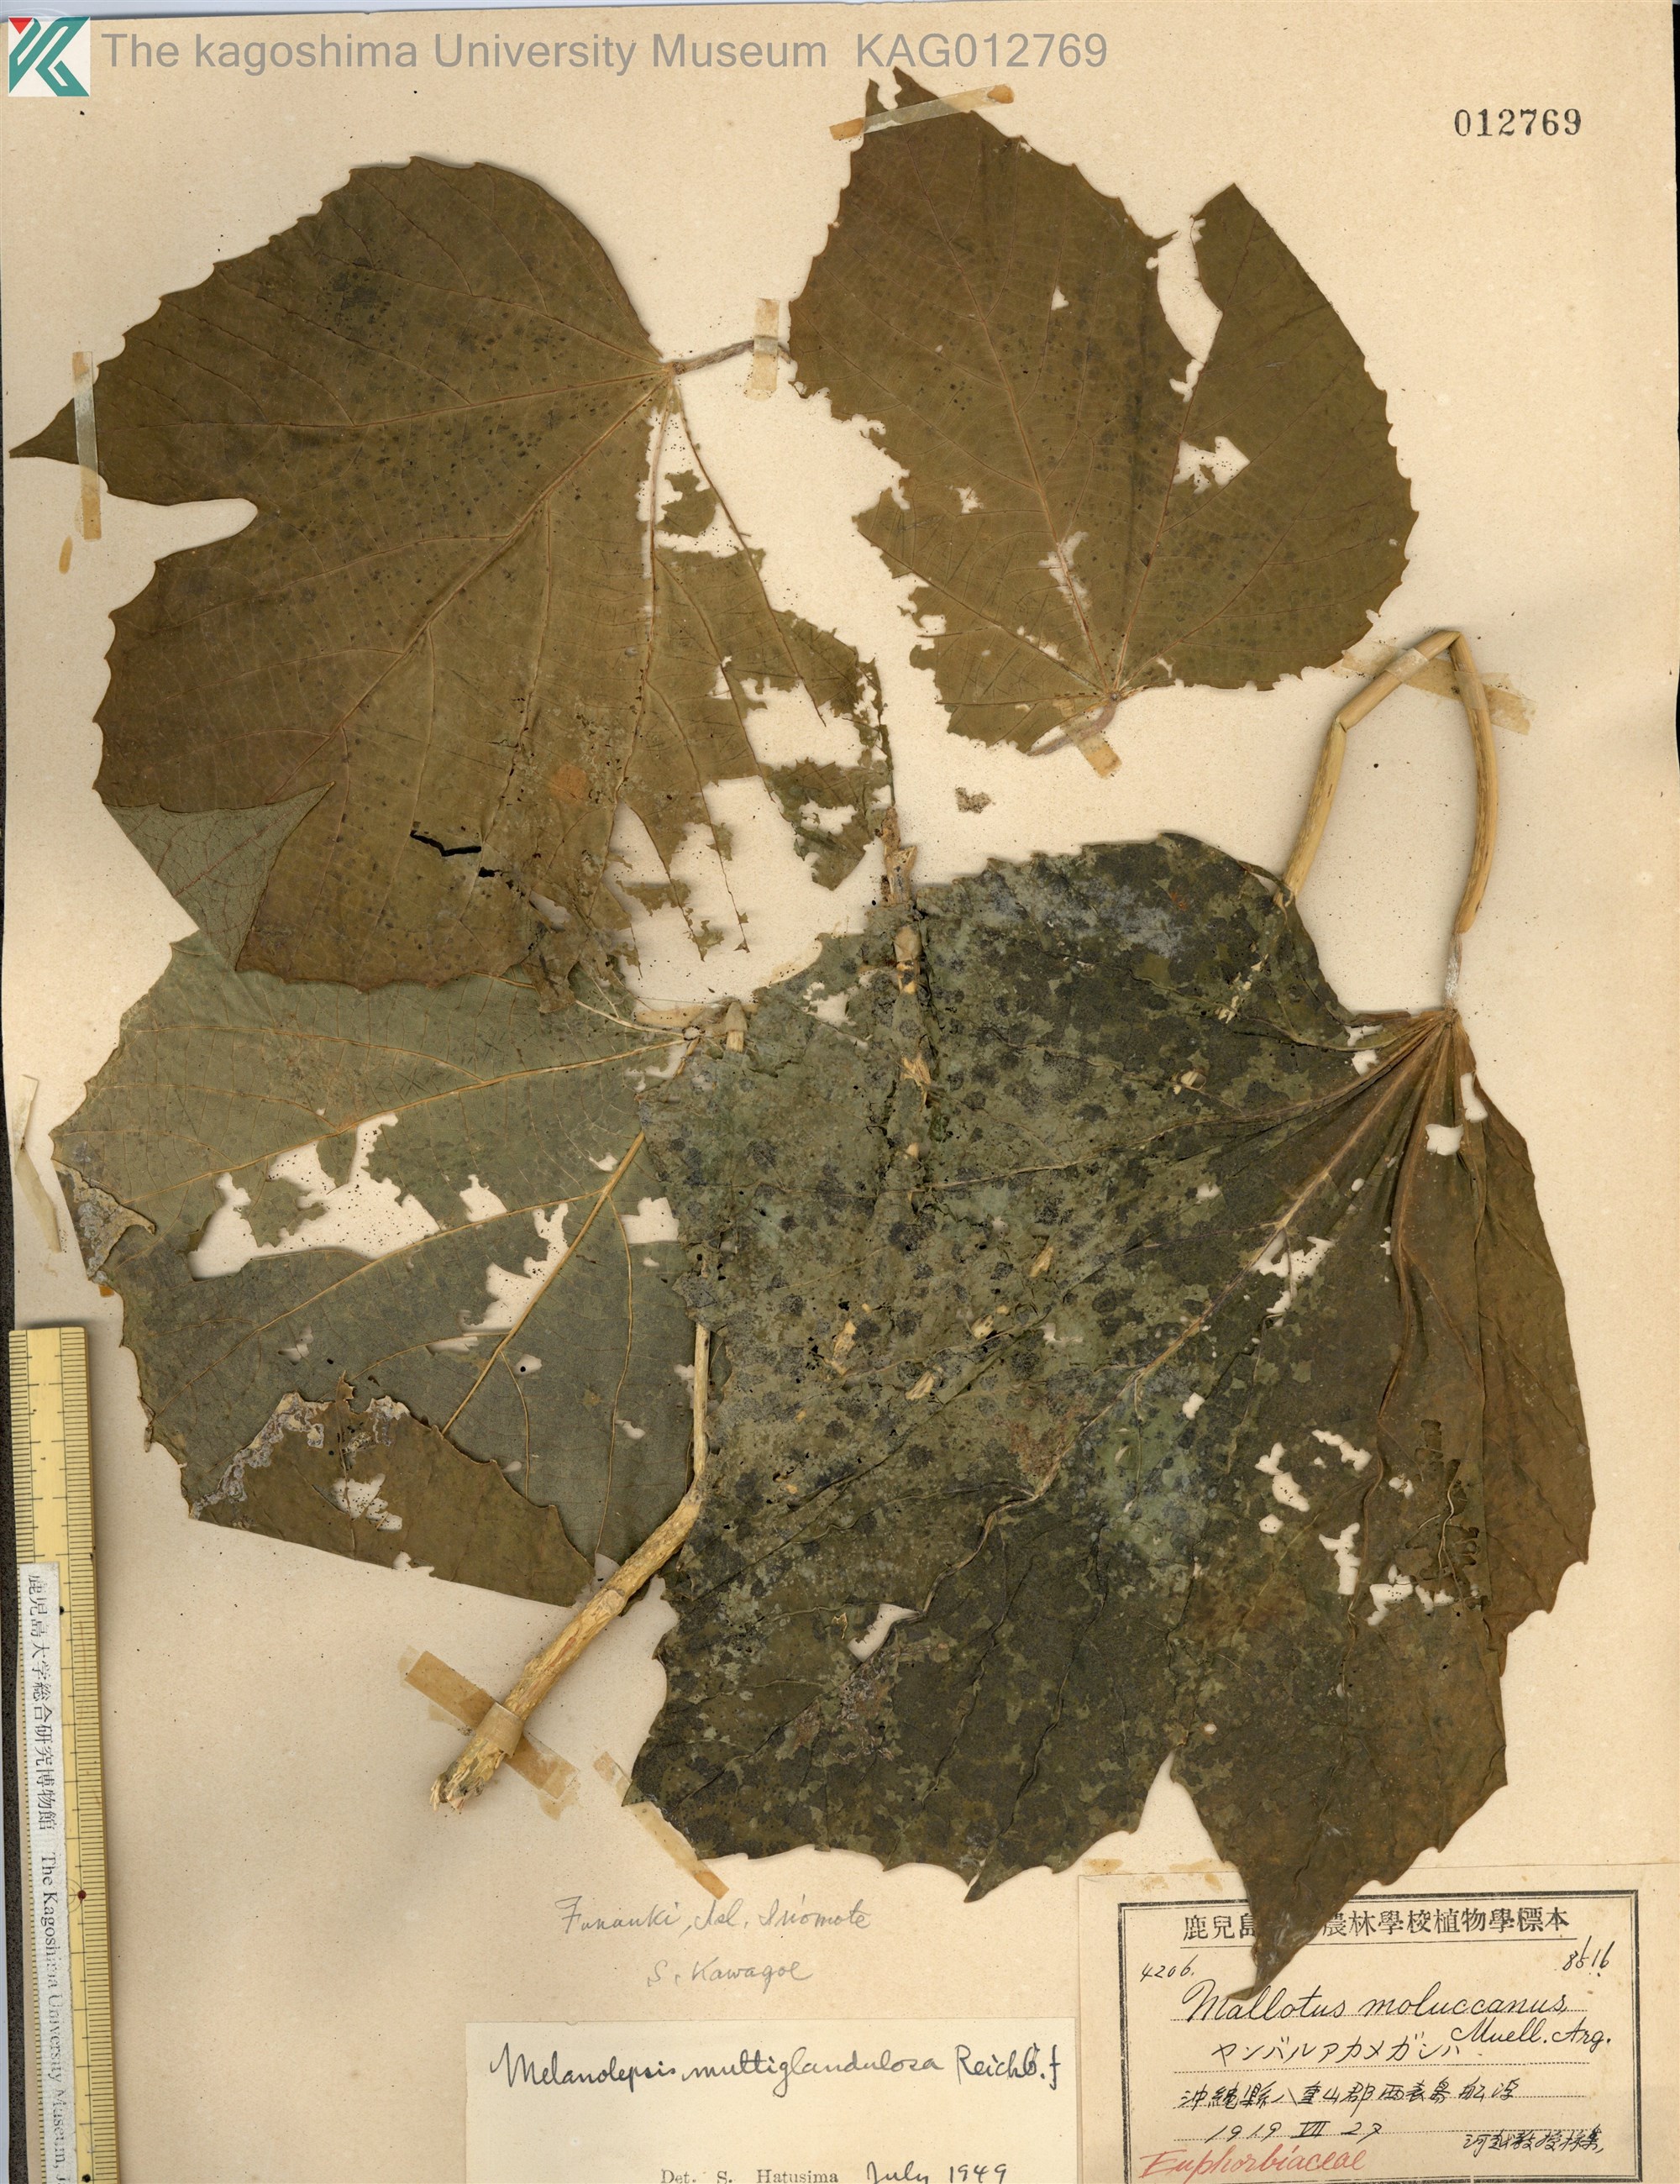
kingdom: Plantae
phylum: Tracheophyta
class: Magnoliopsida
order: Malpighiales
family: Euphorbiaceae
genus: Melanolepis
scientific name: Melanolepis multiglandulosa
